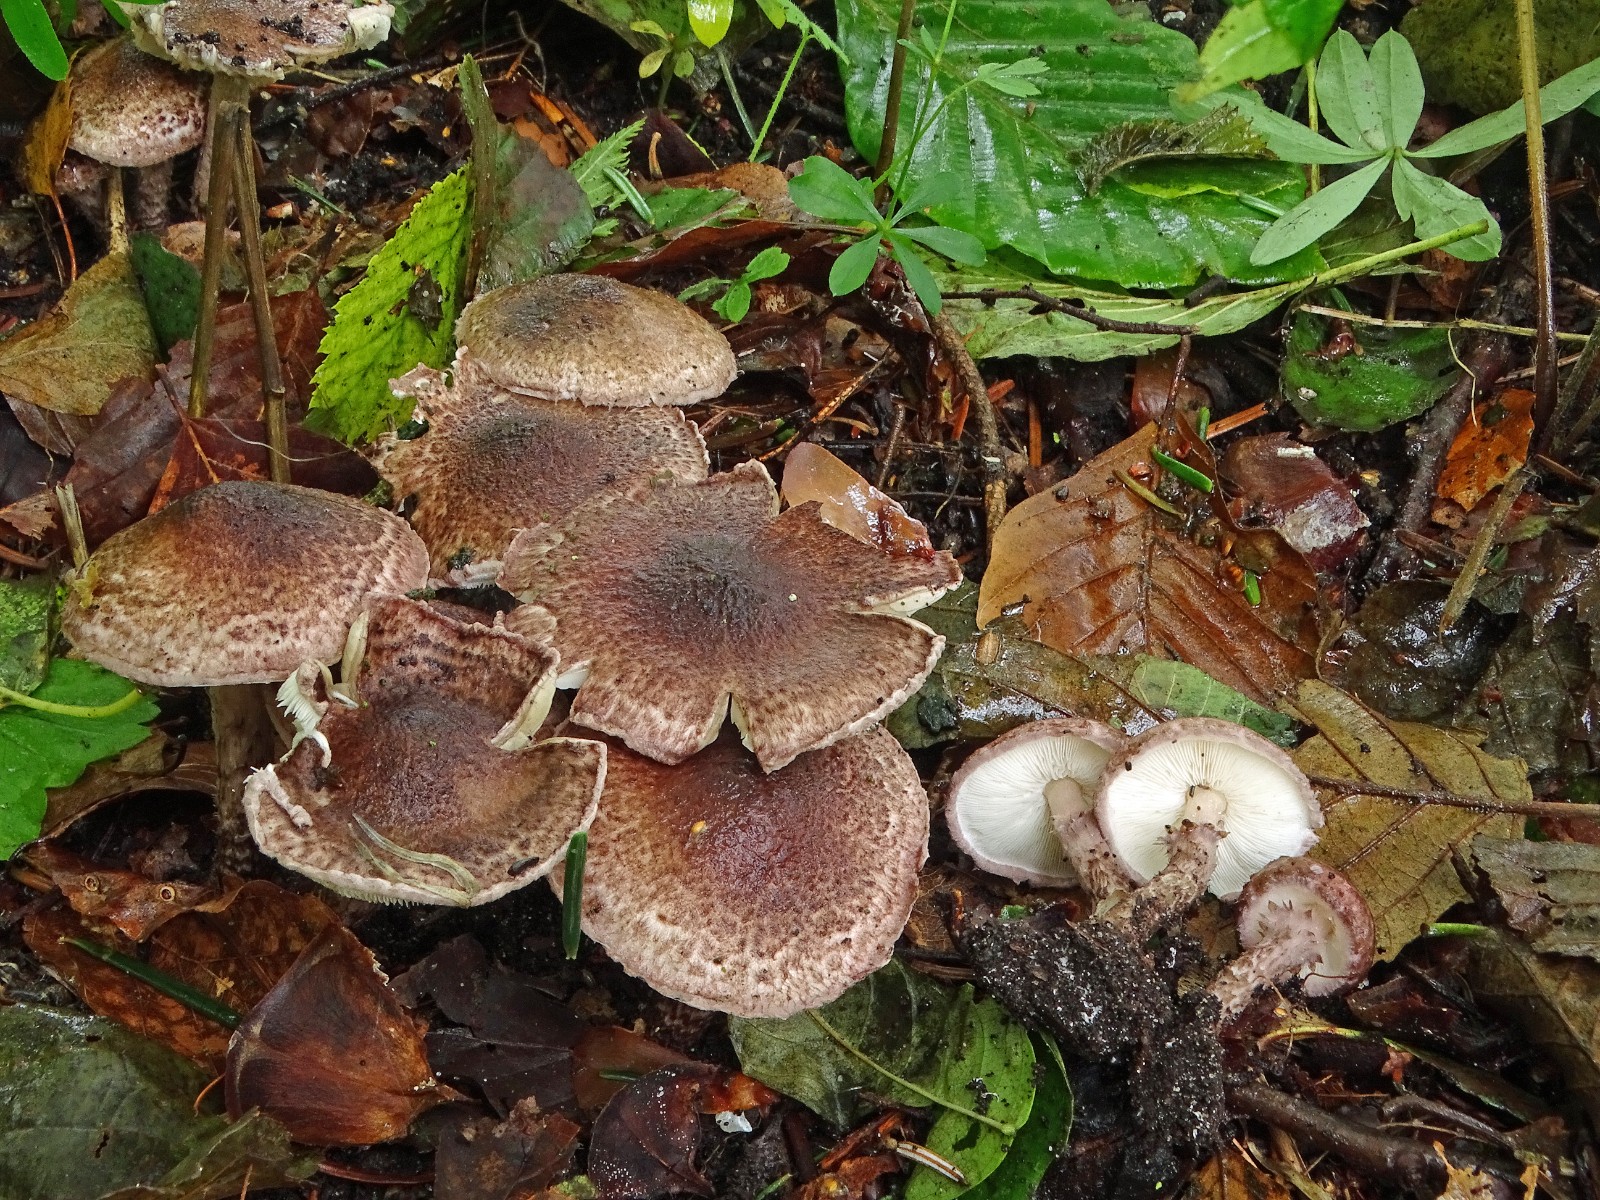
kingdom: Fungi
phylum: Basidiomycota
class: Agaricomycetes
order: Agaricales
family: Agaricaceae
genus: Lepiota
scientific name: Lepiota fuscovinacea
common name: vinrød parasolhat
